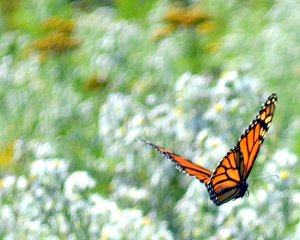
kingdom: Animalia
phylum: Arthropoda
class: Insecta
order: Lepidoptera
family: Nymphalidae
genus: Danaus
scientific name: Danaus plexippus
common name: Monarch
